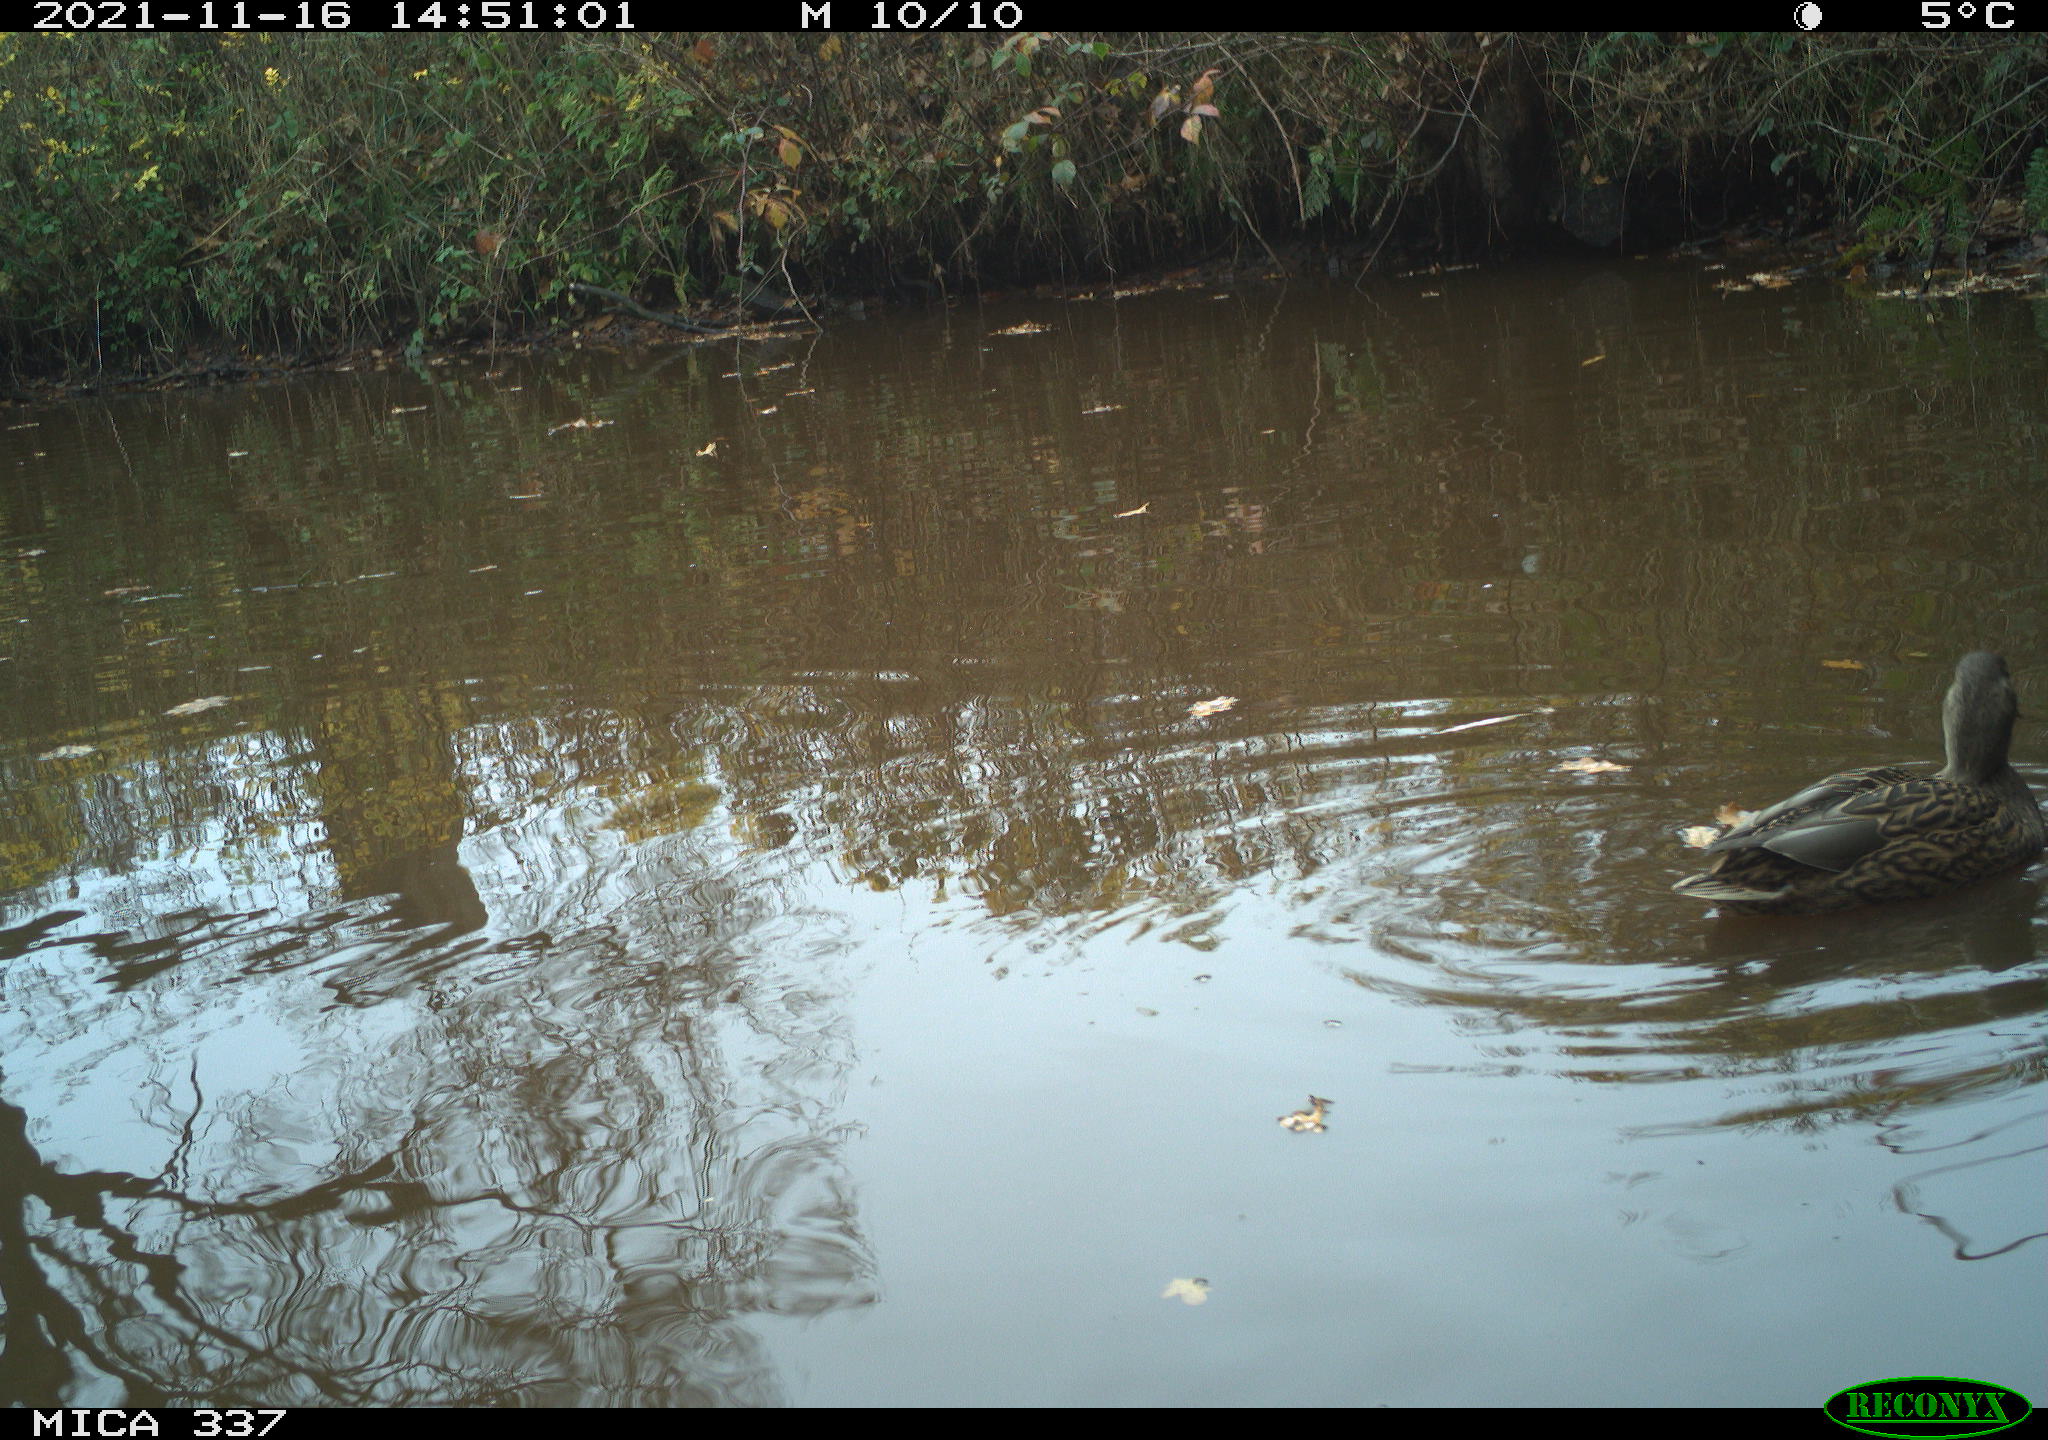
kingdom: Animalia
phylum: Chordata
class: Aves
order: Anseriformes
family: Anatidae
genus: Anas
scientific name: Anas platyrhynchos
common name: Mallard
